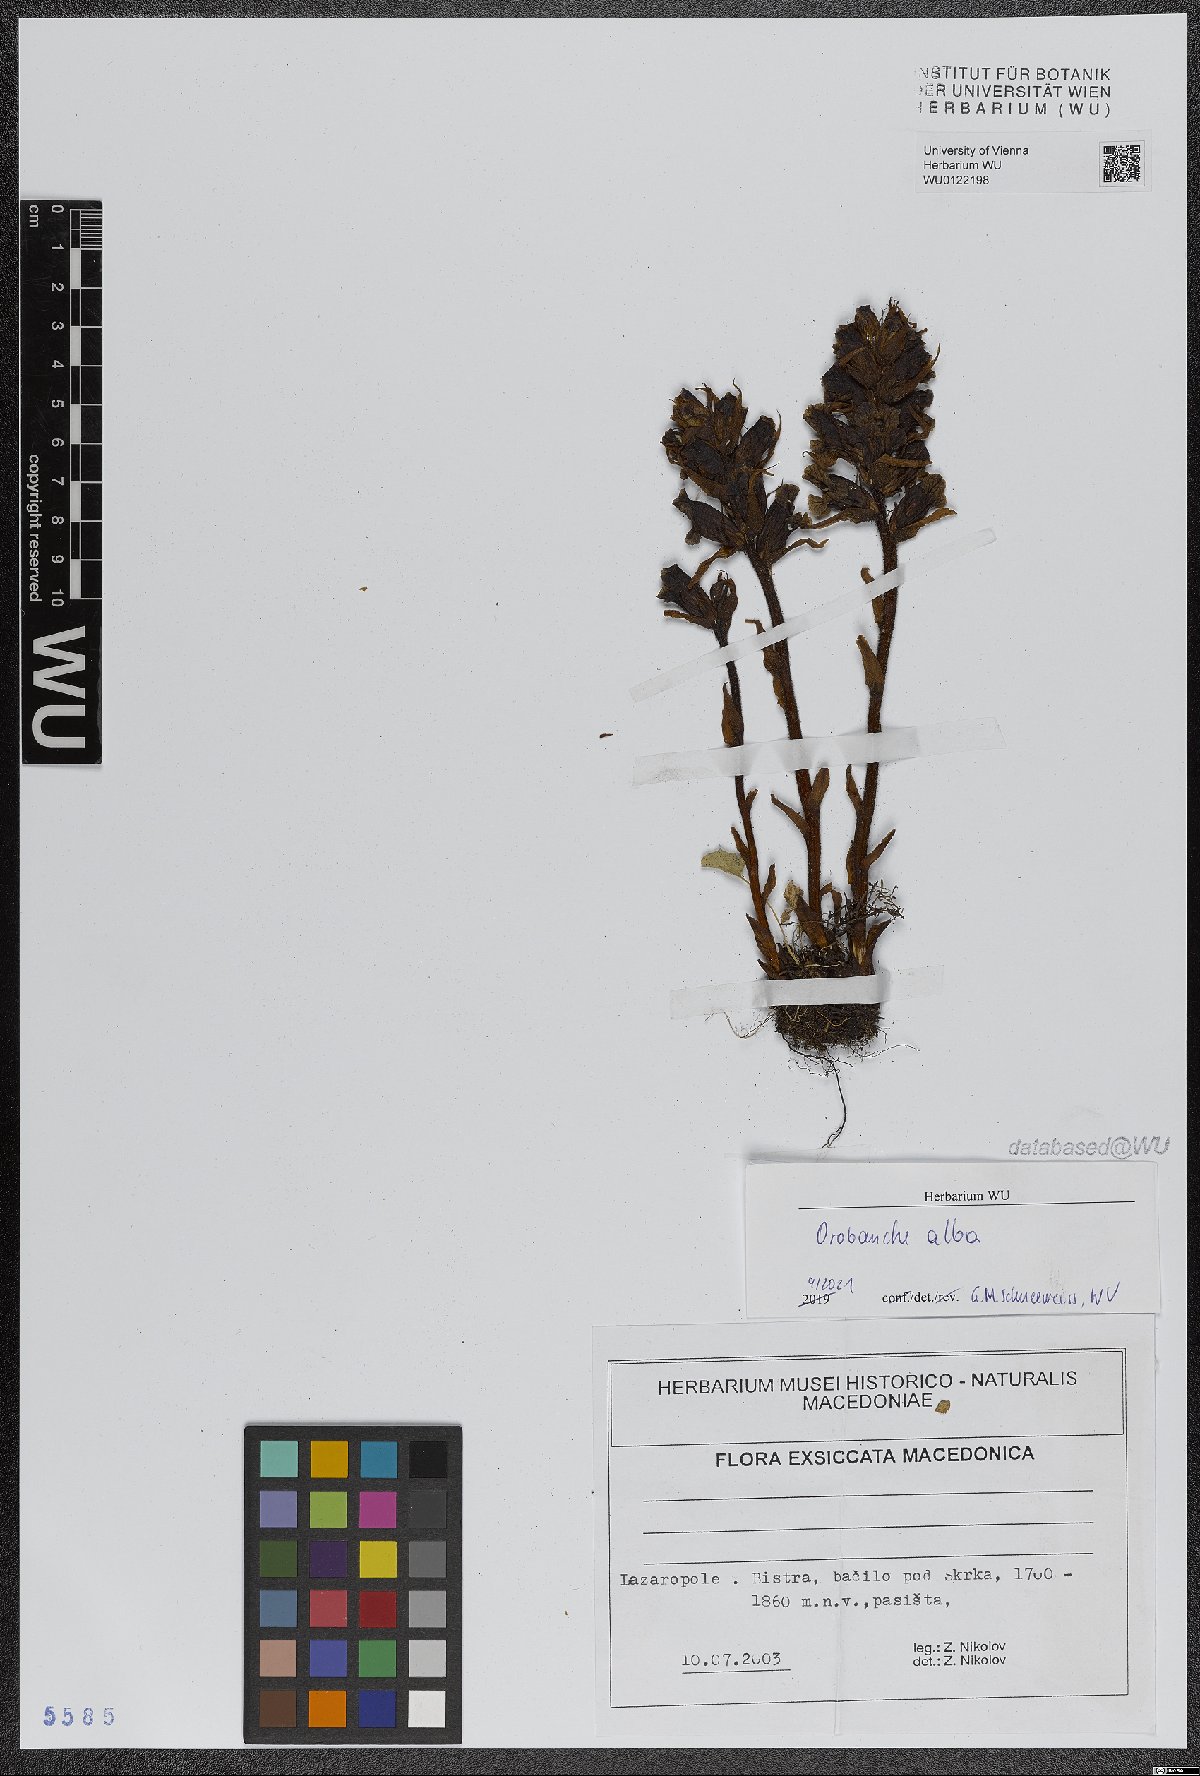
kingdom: Plantae
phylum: Tracheophyta
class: Magnoliopsida
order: Lamiales
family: Orobanchaceae
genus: Orobanche
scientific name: Orobanche alba
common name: Thyme broomrape
